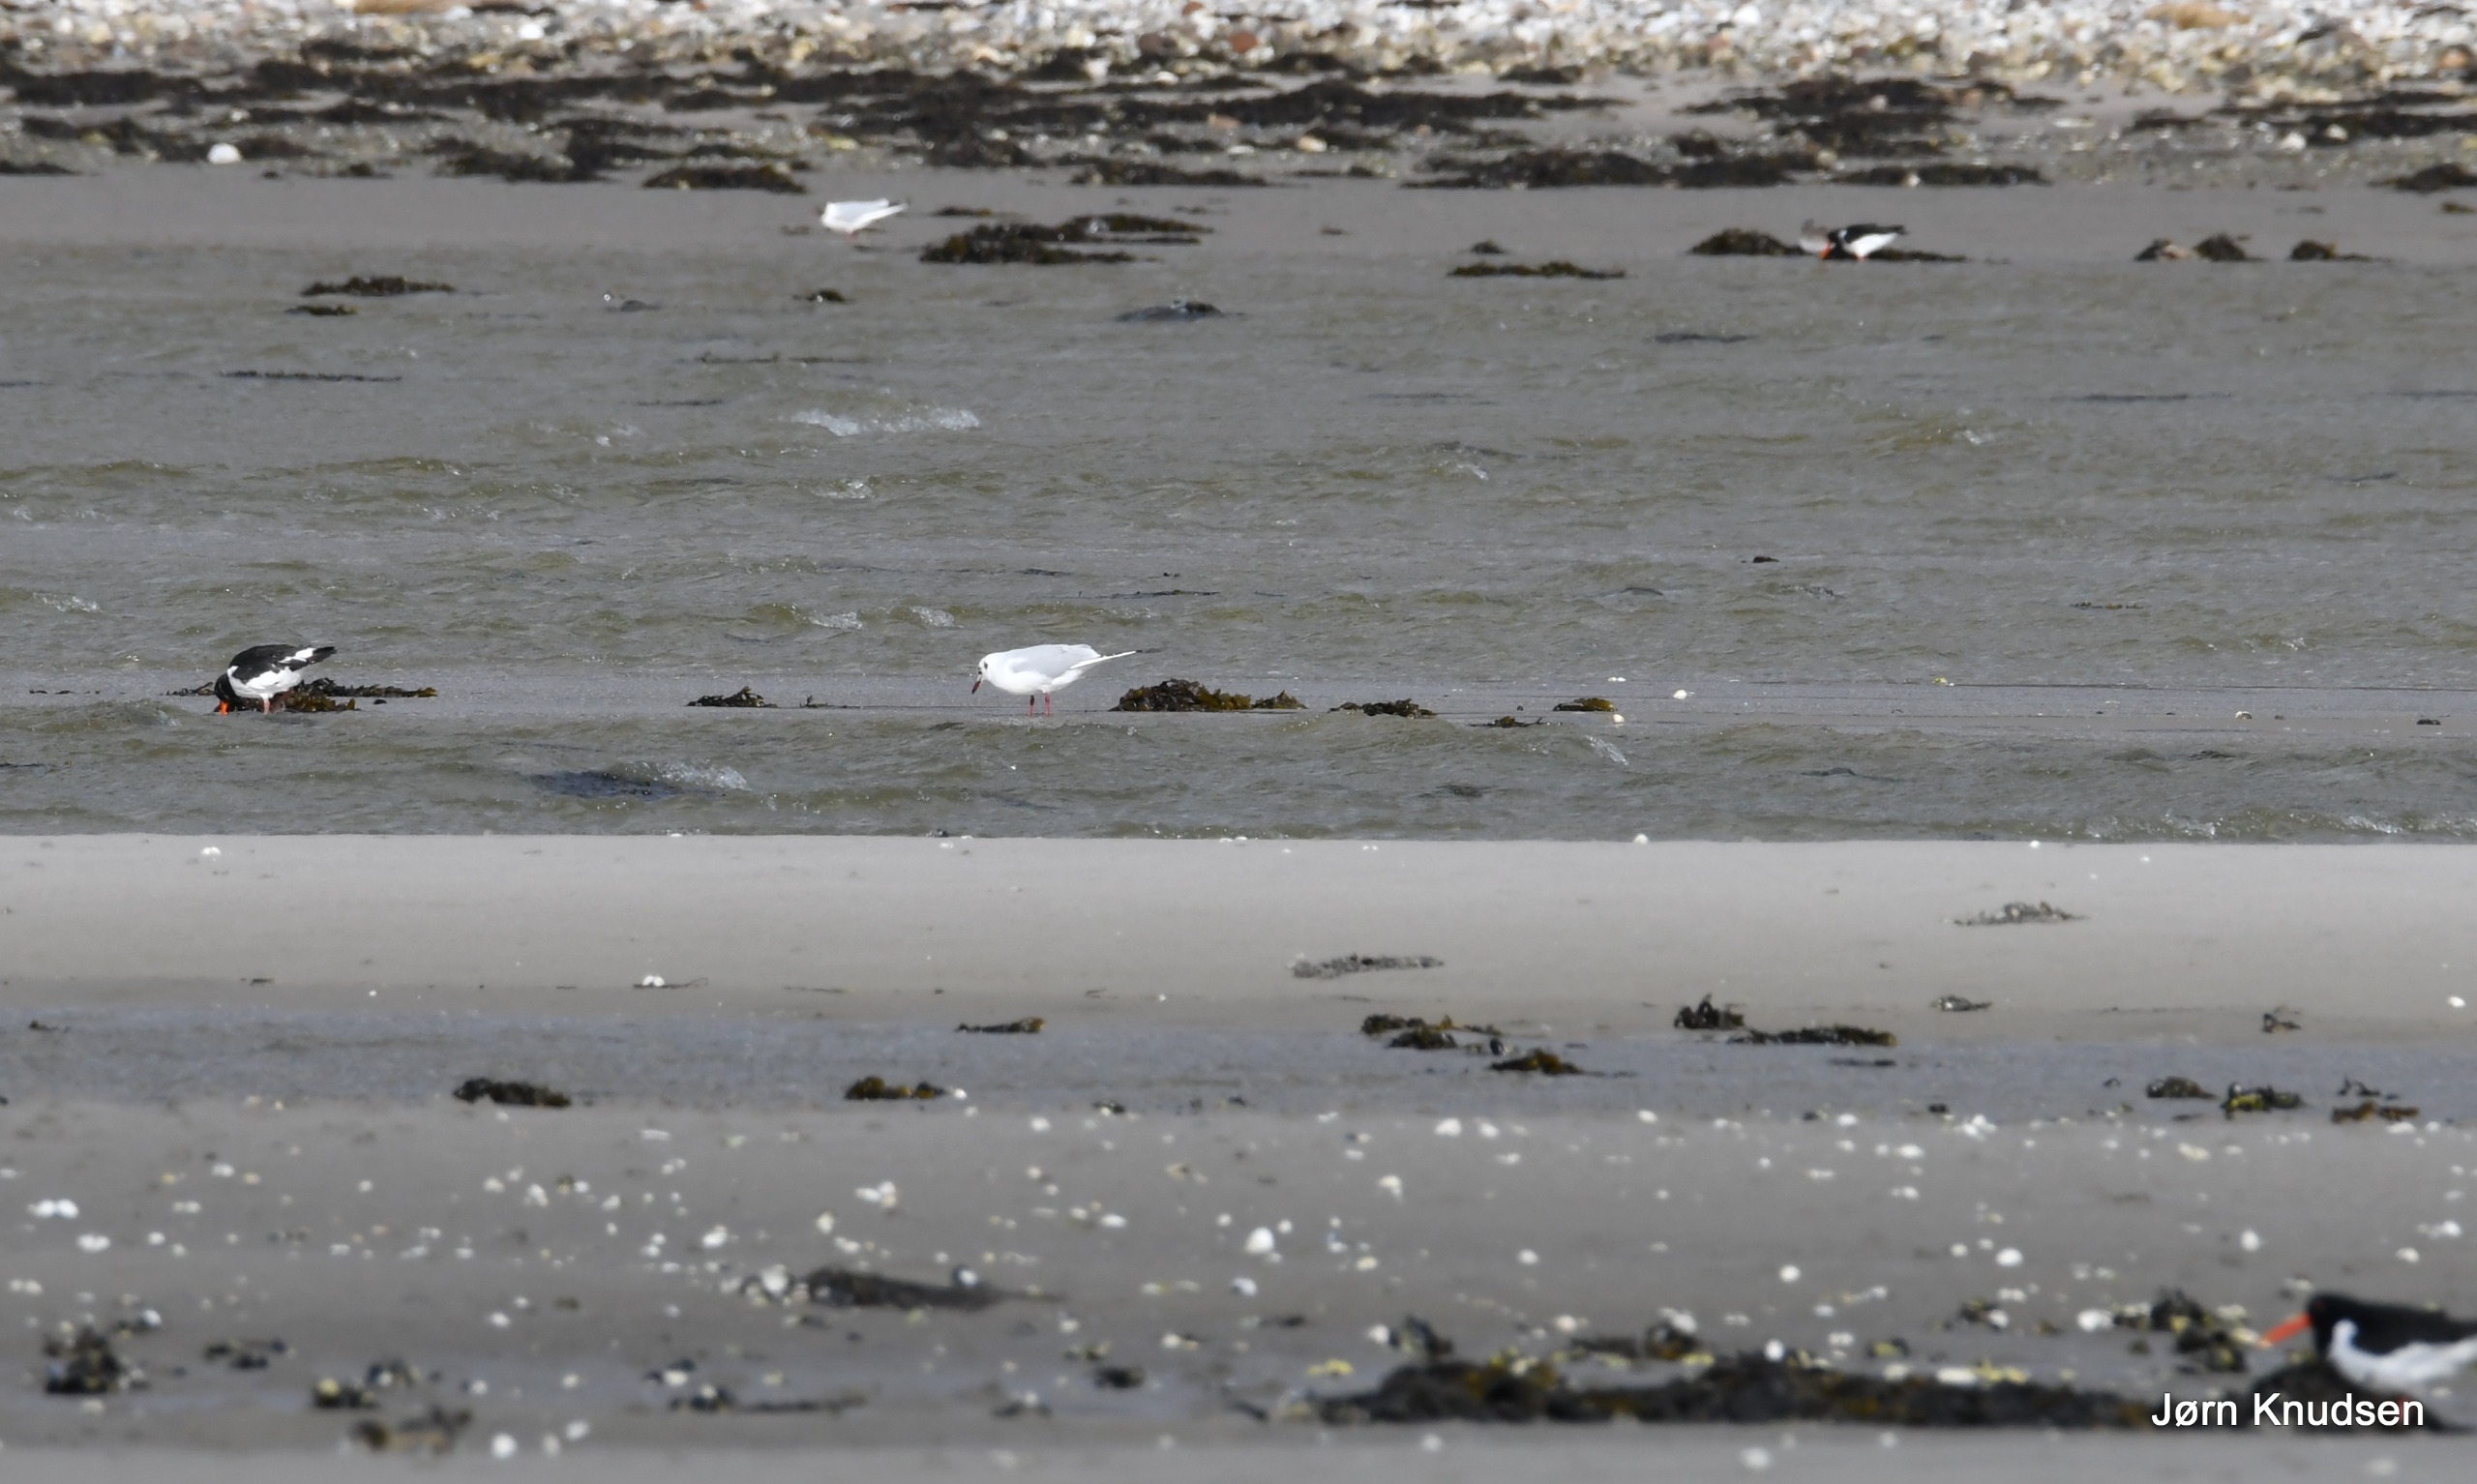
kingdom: Animalia
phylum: Chordata
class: Aves
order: Charadriiformes
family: Haematopodidae
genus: Haematopus
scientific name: Haematopus ostralegus
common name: Strandskade
